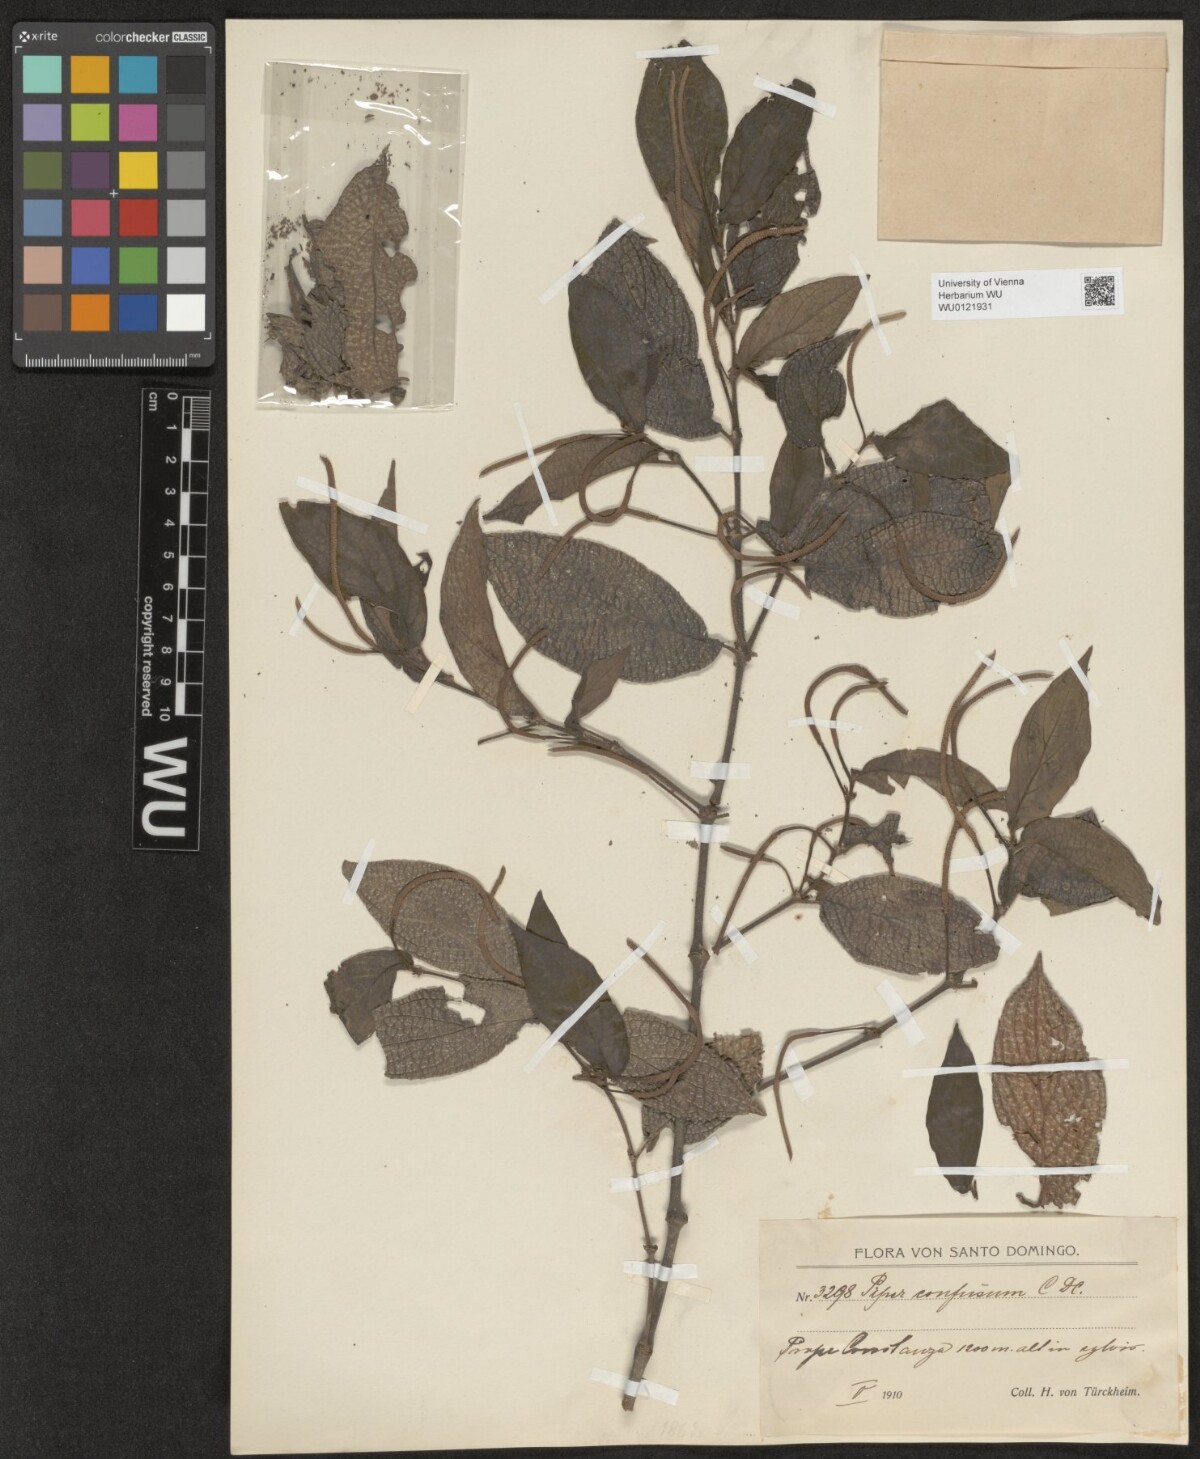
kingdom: Plantae
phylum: Tracheophyta
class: Magnoliopsida
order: Piperales
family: Piperaceae
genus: Piper
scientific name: Piper confusum
